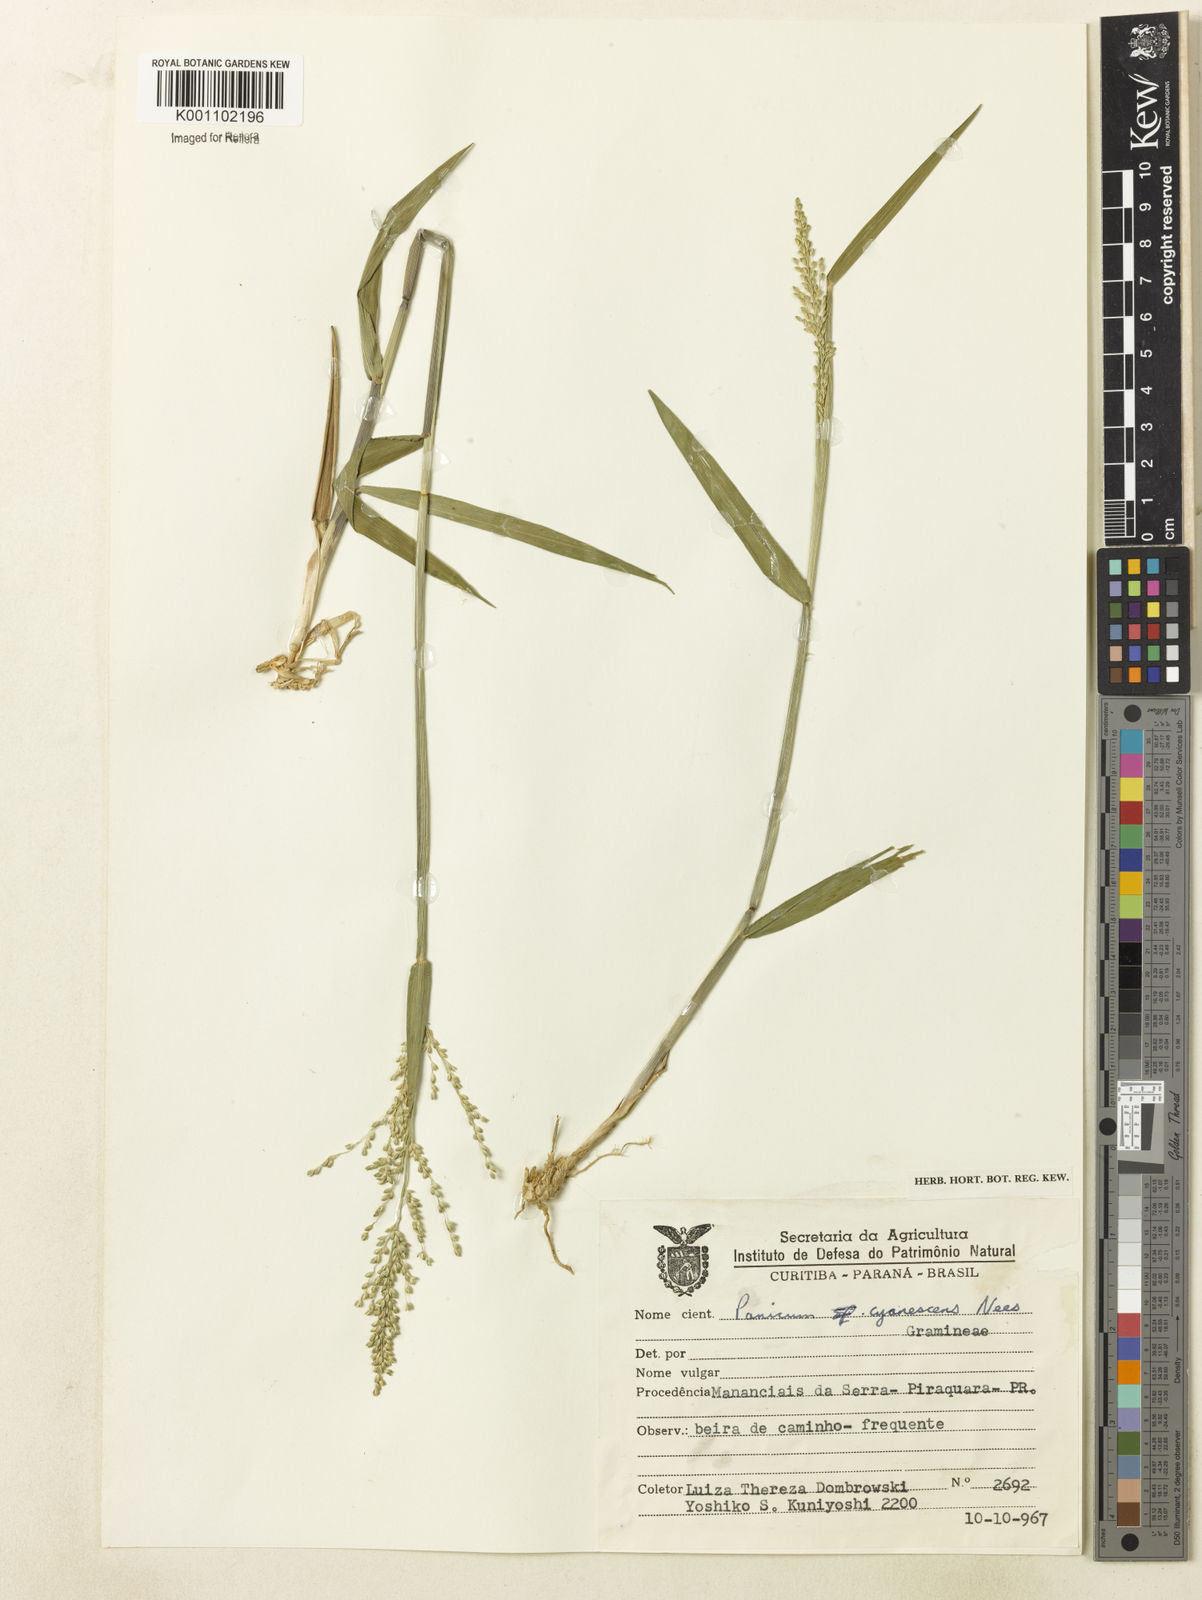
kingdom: Plantae
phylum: Tracheophyta
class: Liliopsida
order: Poales
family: Poaceae
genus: Dichanthelium
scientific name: Dichanthelium sabulorum
